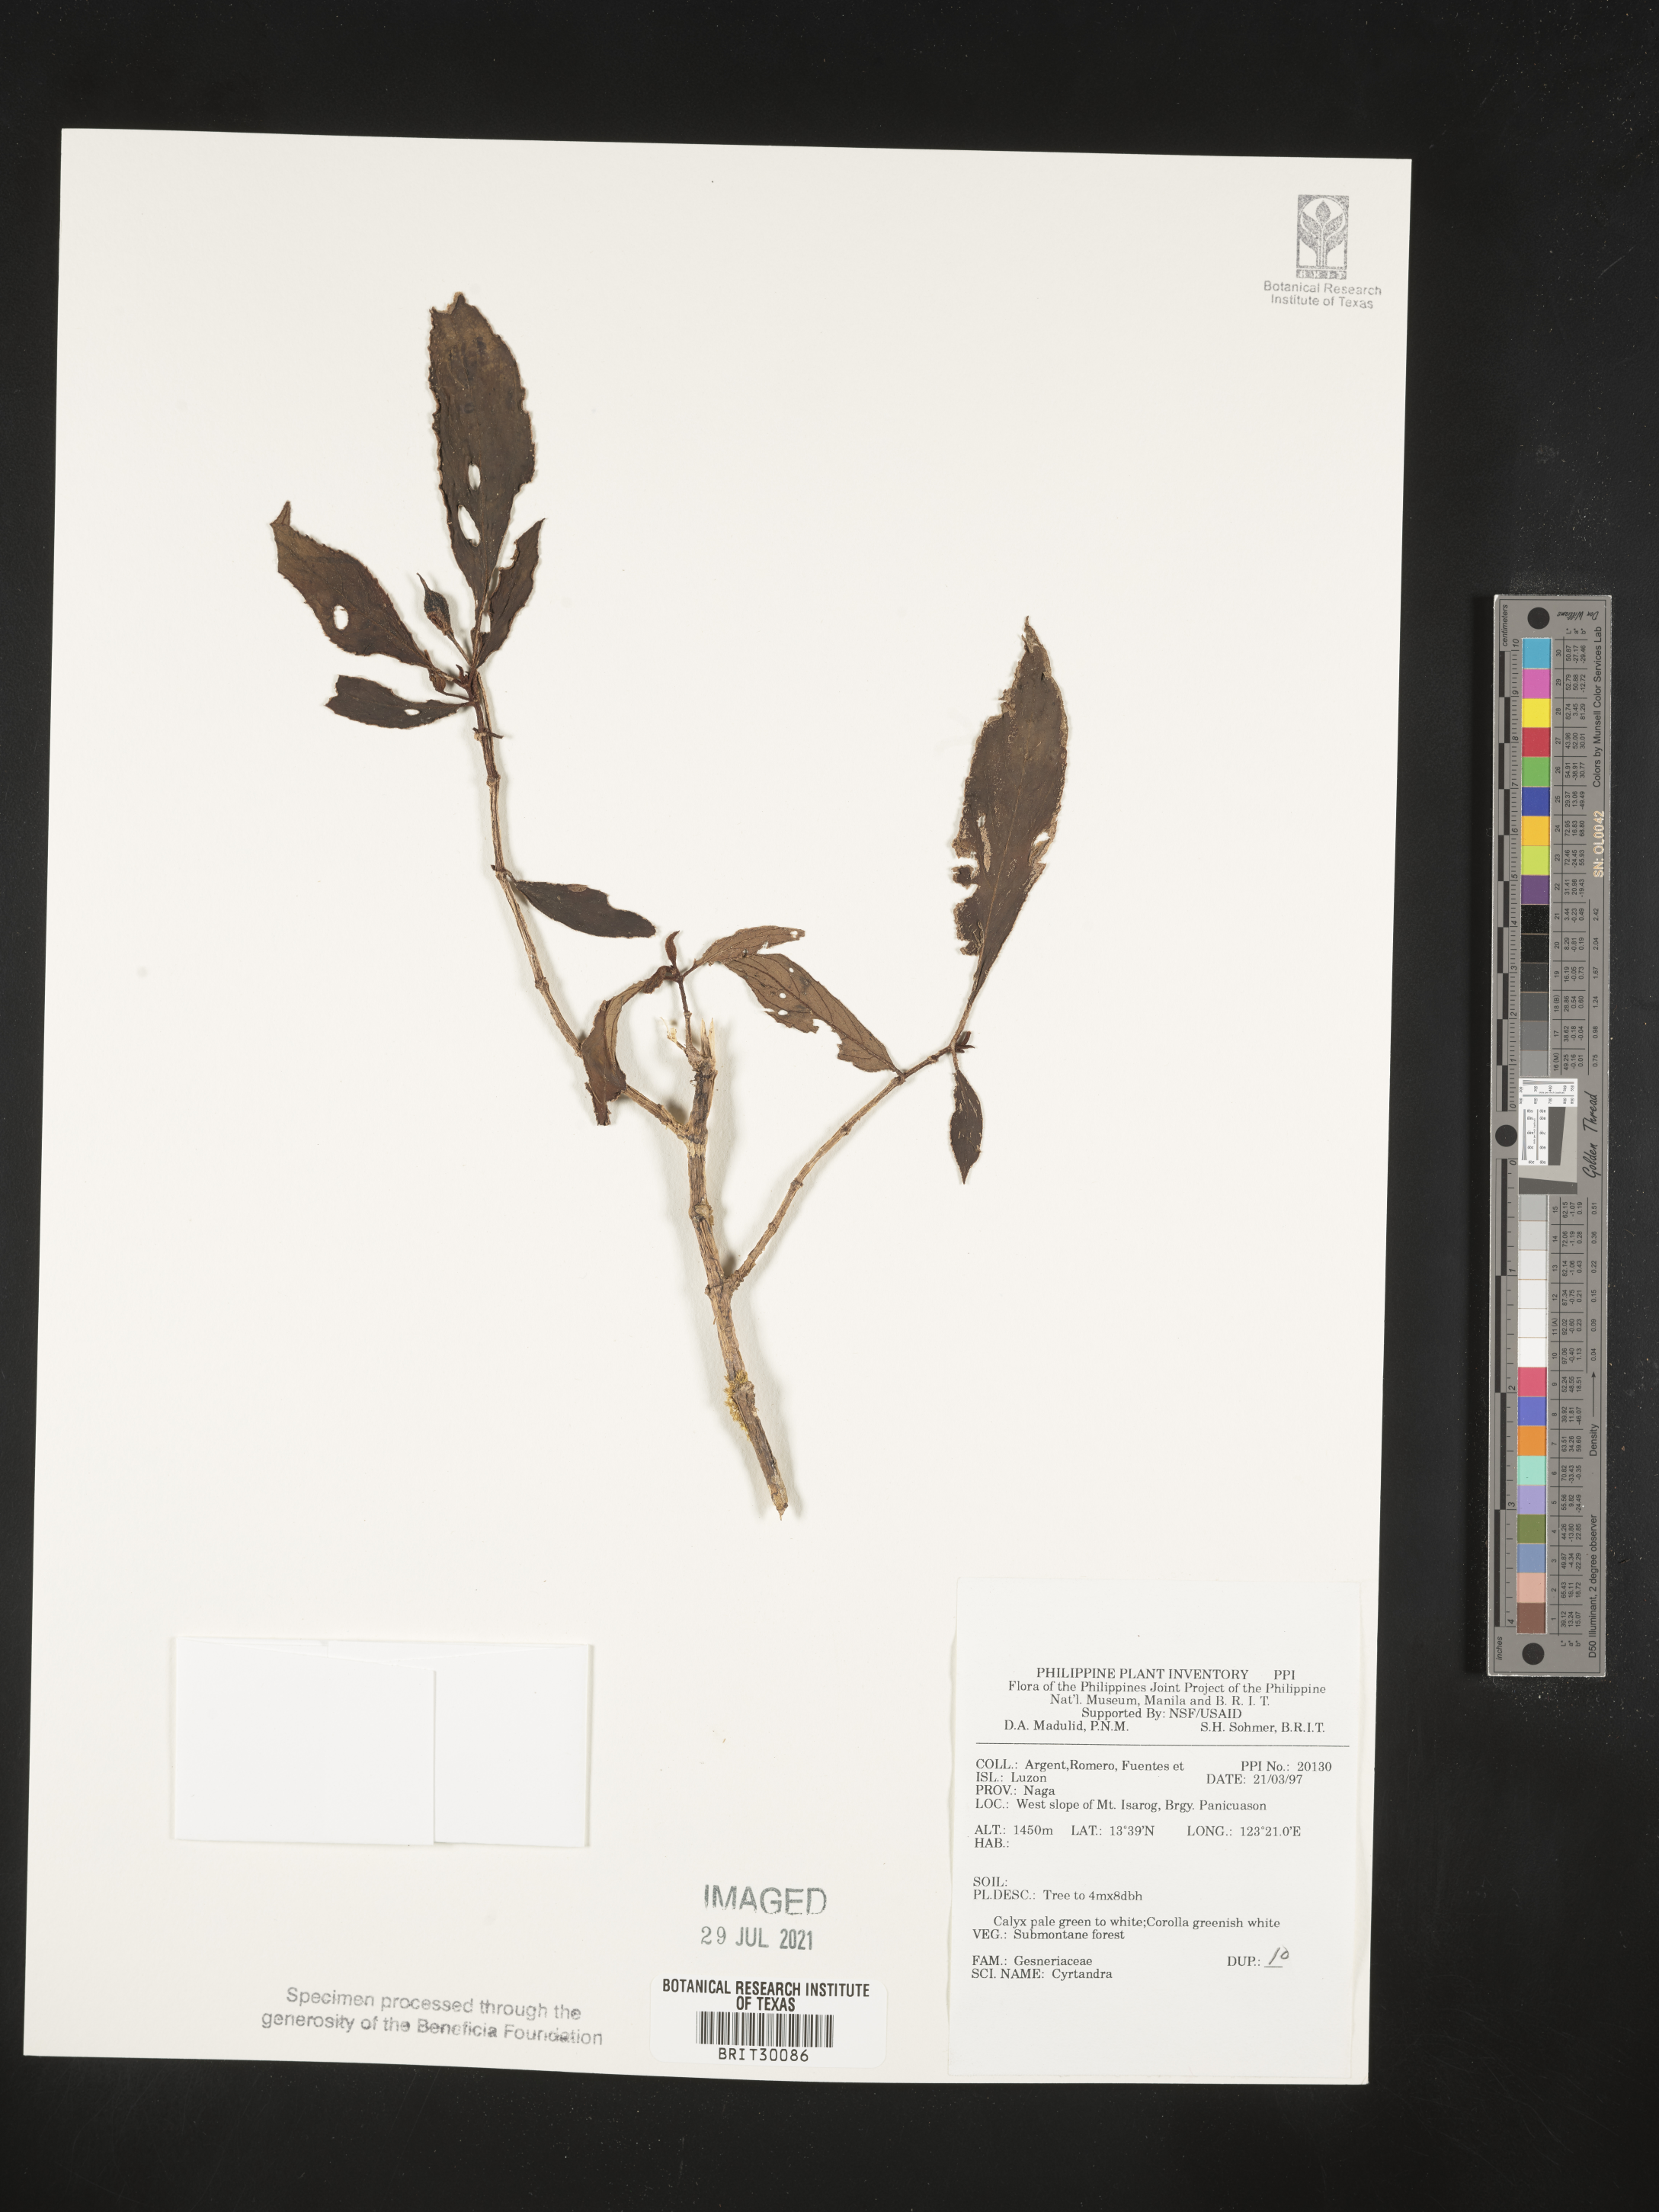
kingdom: Plantae
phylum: Tracheophyta
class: Magnoliopsida
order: Lamiales
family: Gesneriaceae
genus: Cyrtandra
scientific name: Cyrtandra
